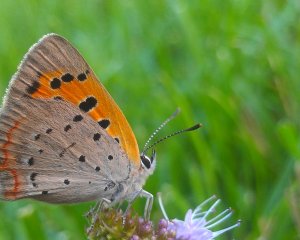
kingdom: Animalia
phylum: Arthropoda
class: Insecta
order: Lepidoptera
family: Lycaenidae
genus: Lycaena
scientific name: Lycaena phlaeas
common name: American Copper
